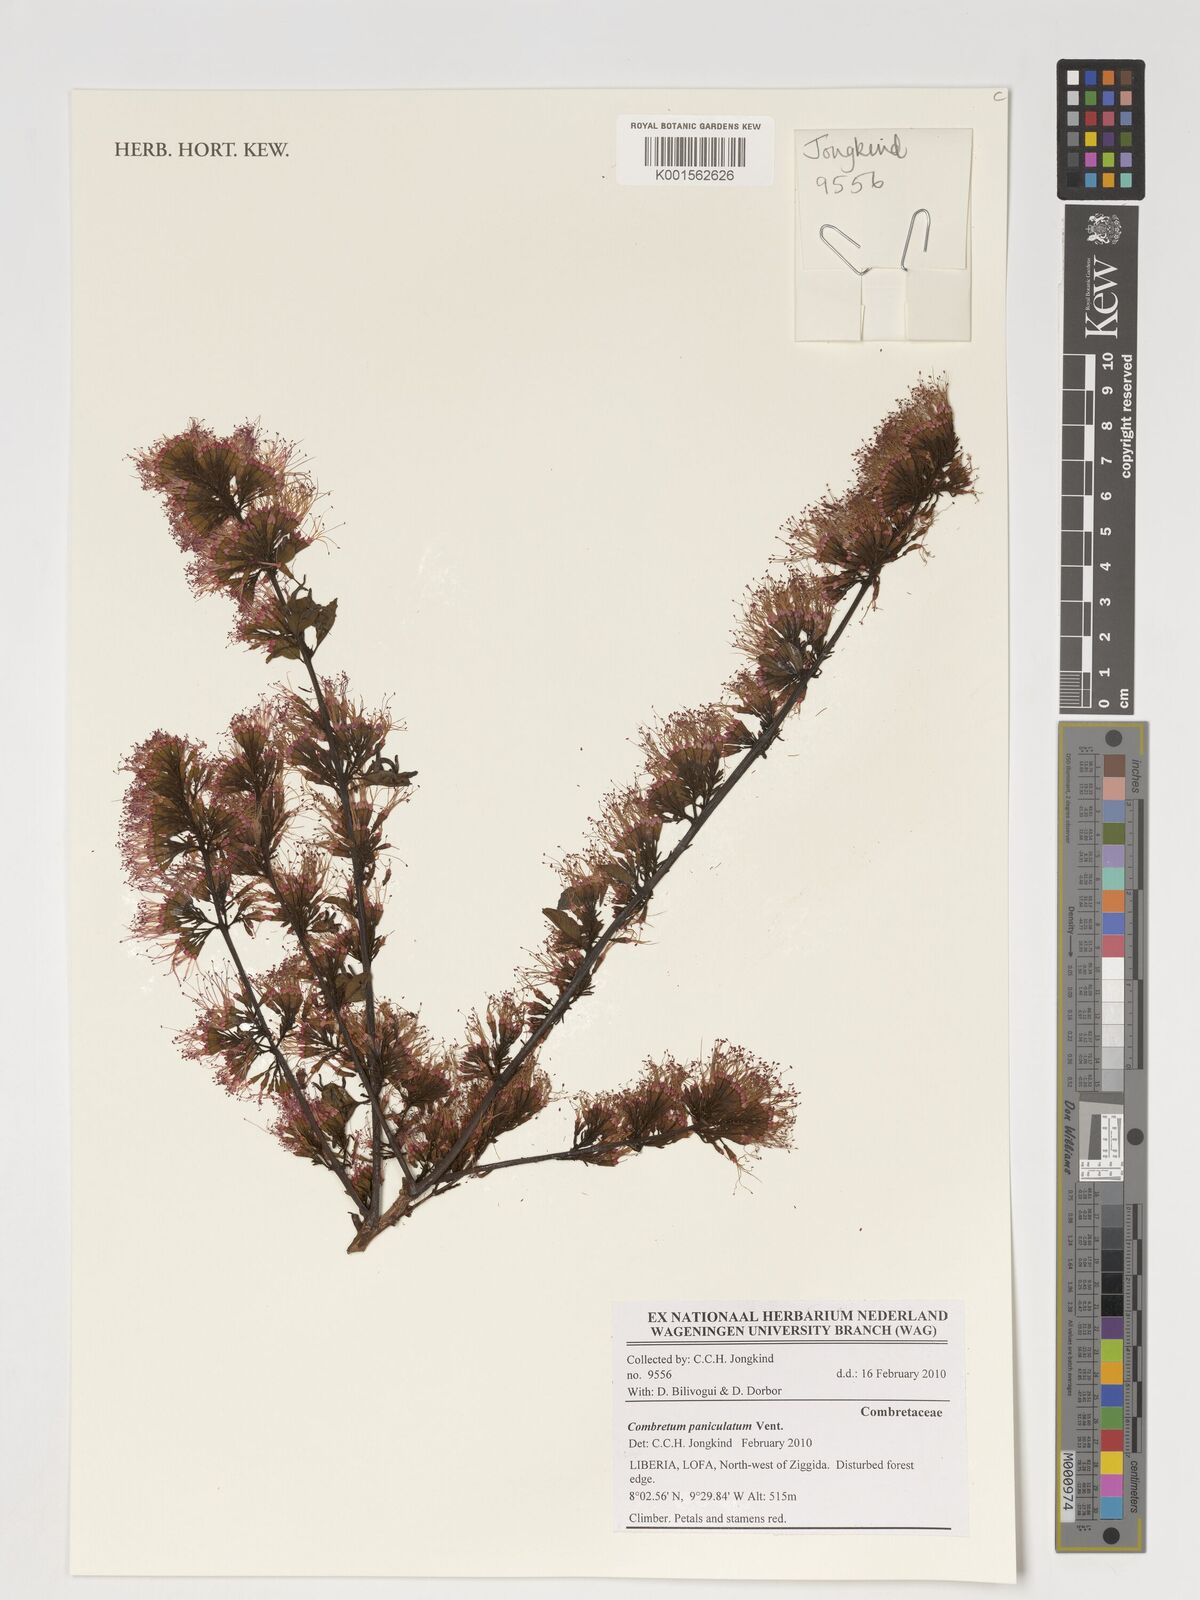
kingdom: Plantae
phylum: Tracheophyta
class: Magnoliopsida
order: Myrtales
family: Combretaceae
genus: Combretum
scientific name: Combretum paniculatum
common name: Fire vine
